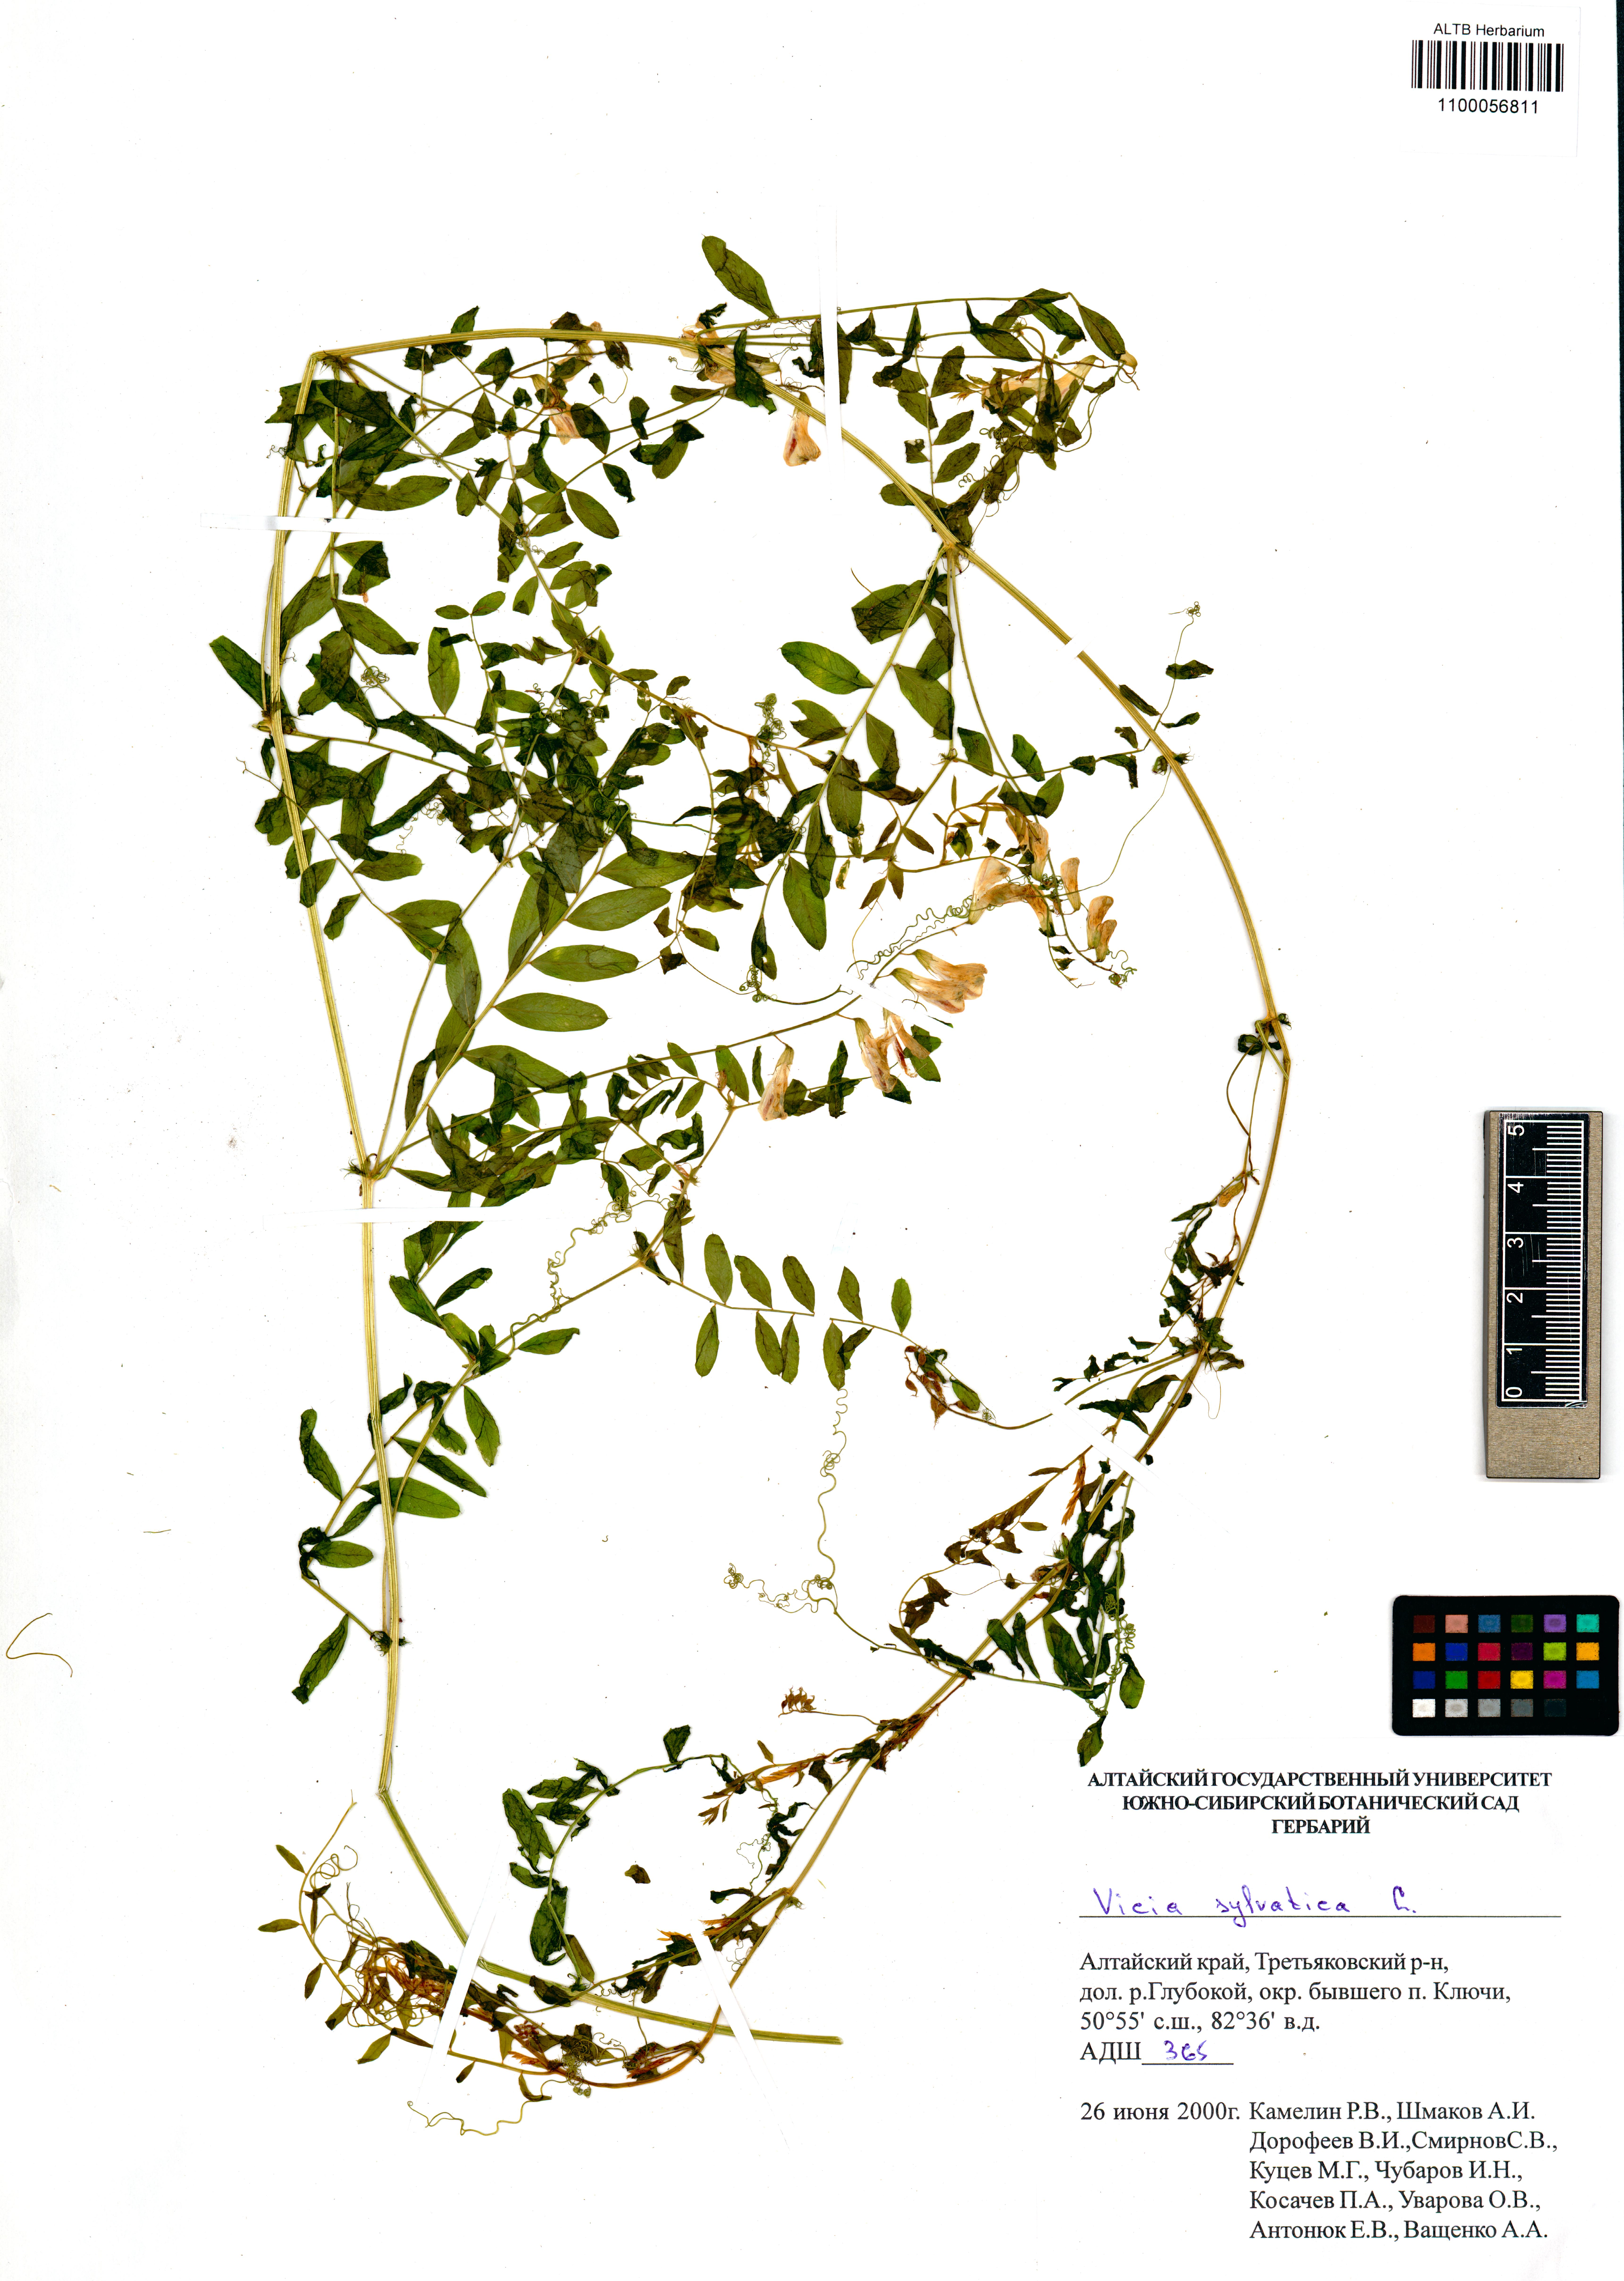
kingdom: Plantae
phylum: Tracheophyta
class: Magnoliopsida
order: Fabales
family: Fabaceae
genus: Vicia
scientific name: Vicia sylvatica
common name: Wood vetch
